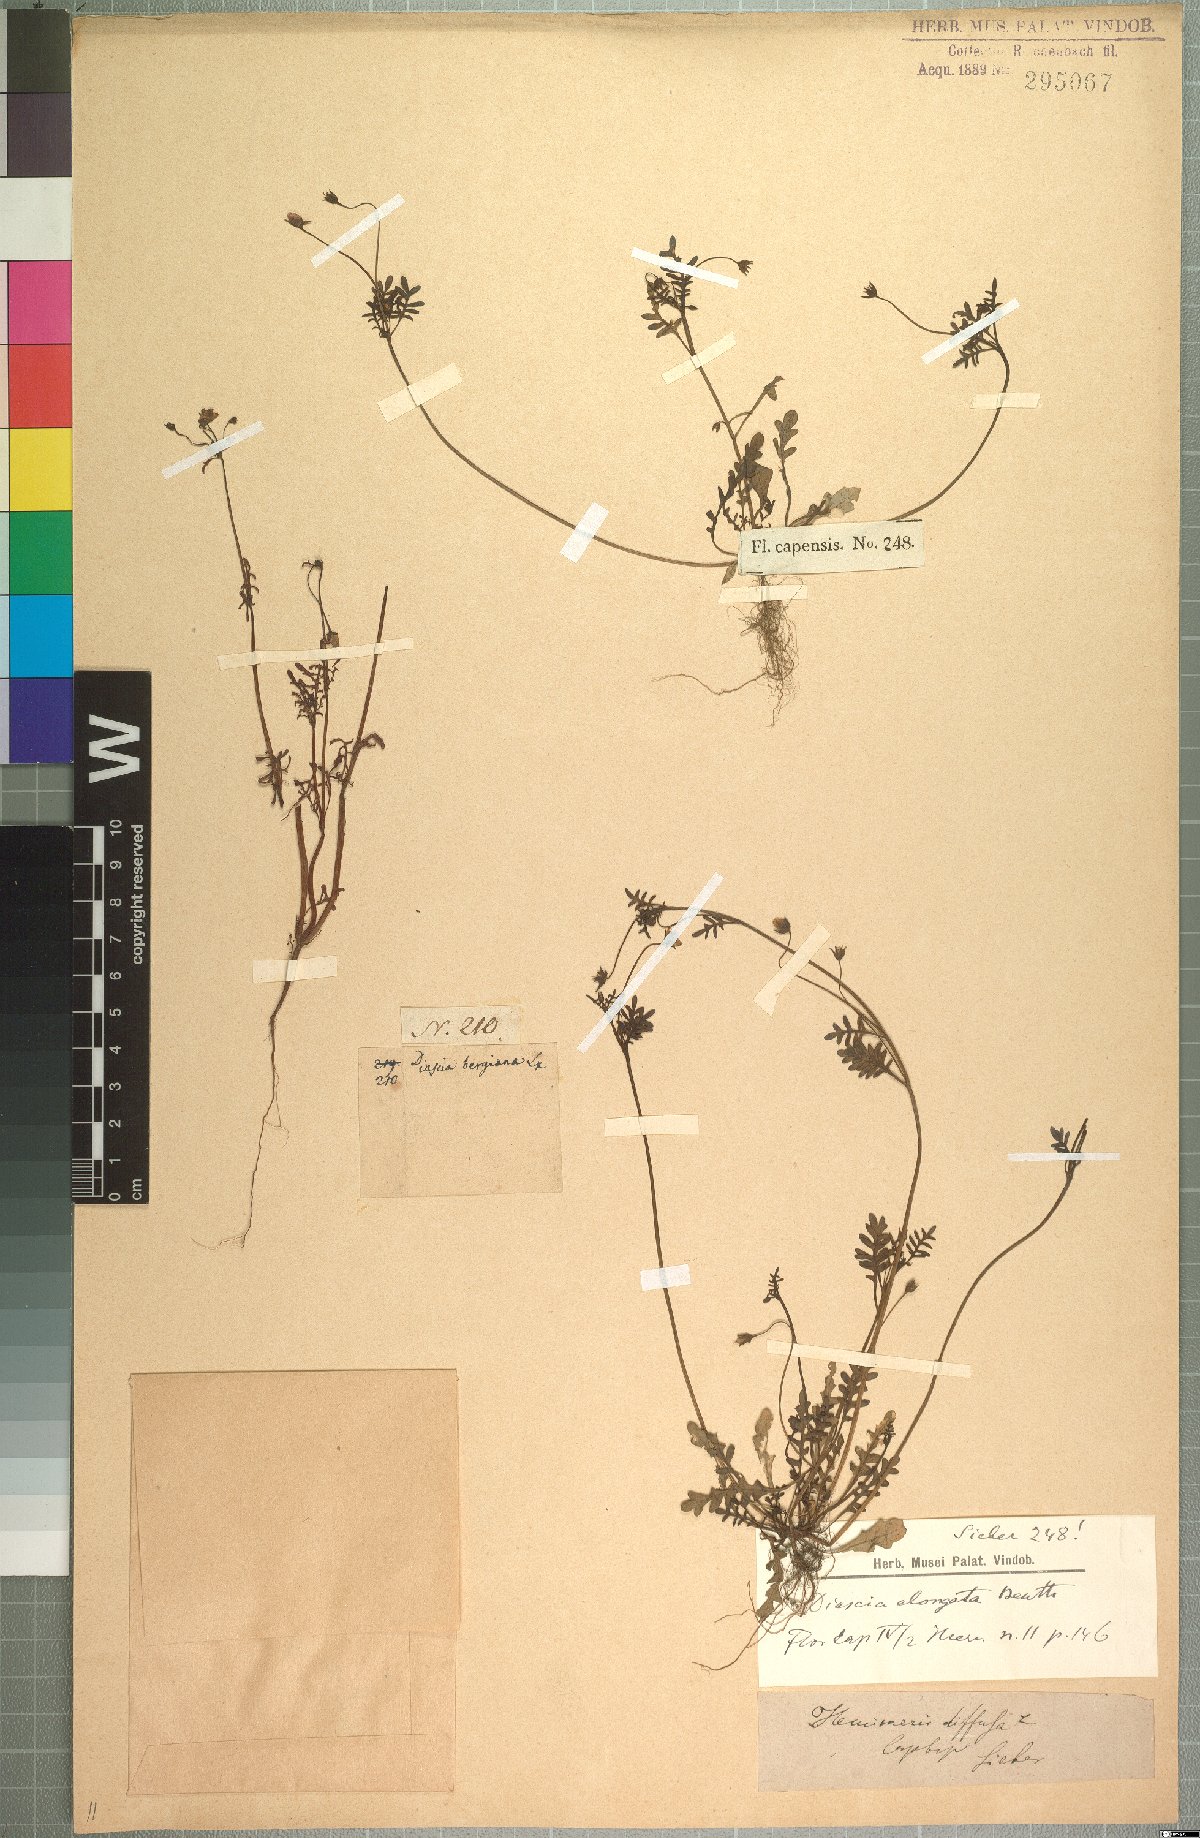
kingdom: Plantae
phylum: Tracheophyta
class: Magnoliopsida
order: Lamiales
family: Scrophulariaceae
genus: Diascia
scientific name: Diascia elongata
